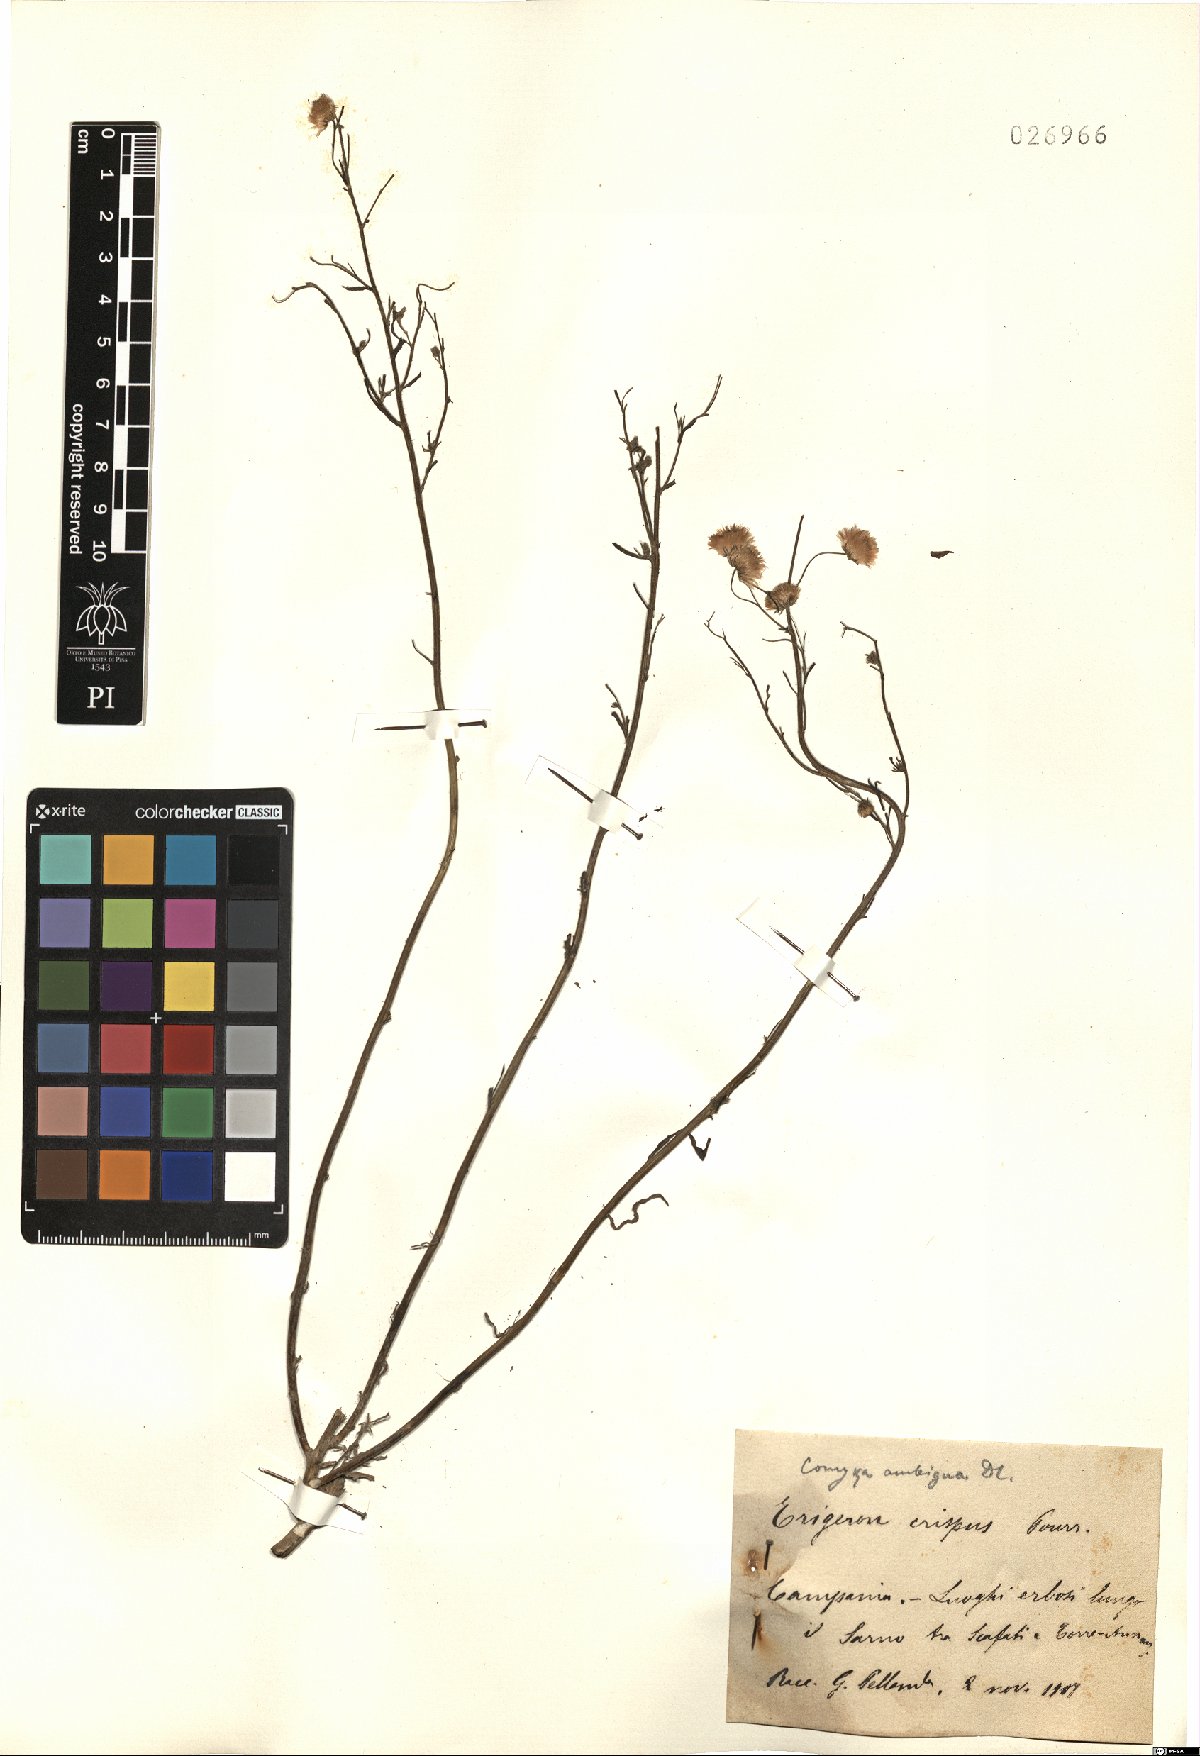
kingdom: Plantae
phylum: Tracheophyta
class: Magnoliopsida
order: Asterales
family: Asteraceae
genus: Erigeron
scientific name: Erigeron bonariensis
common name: Argentine fleabane
